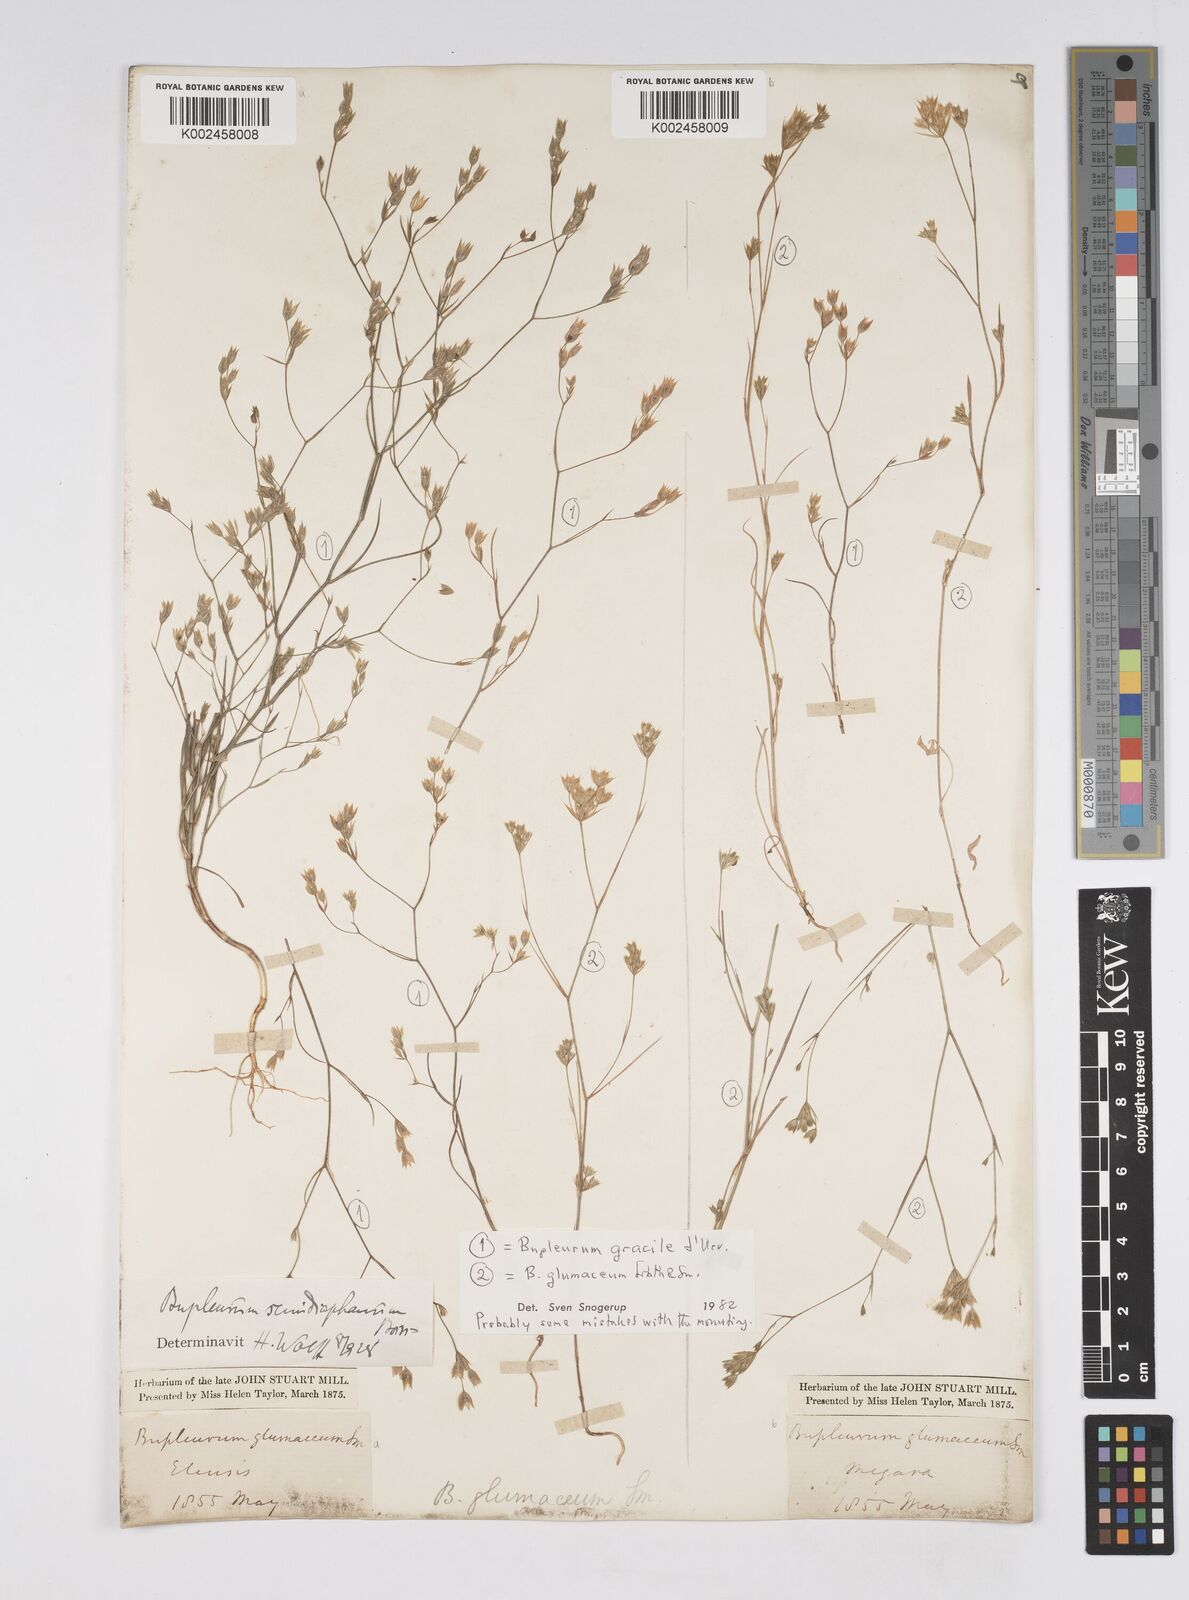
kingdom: Plantae
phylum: Tracheophyta
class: Magnoliopsida
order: Apiales
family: Apiaceae
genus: Bupleurum
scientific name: Bupleurum glumaceum
